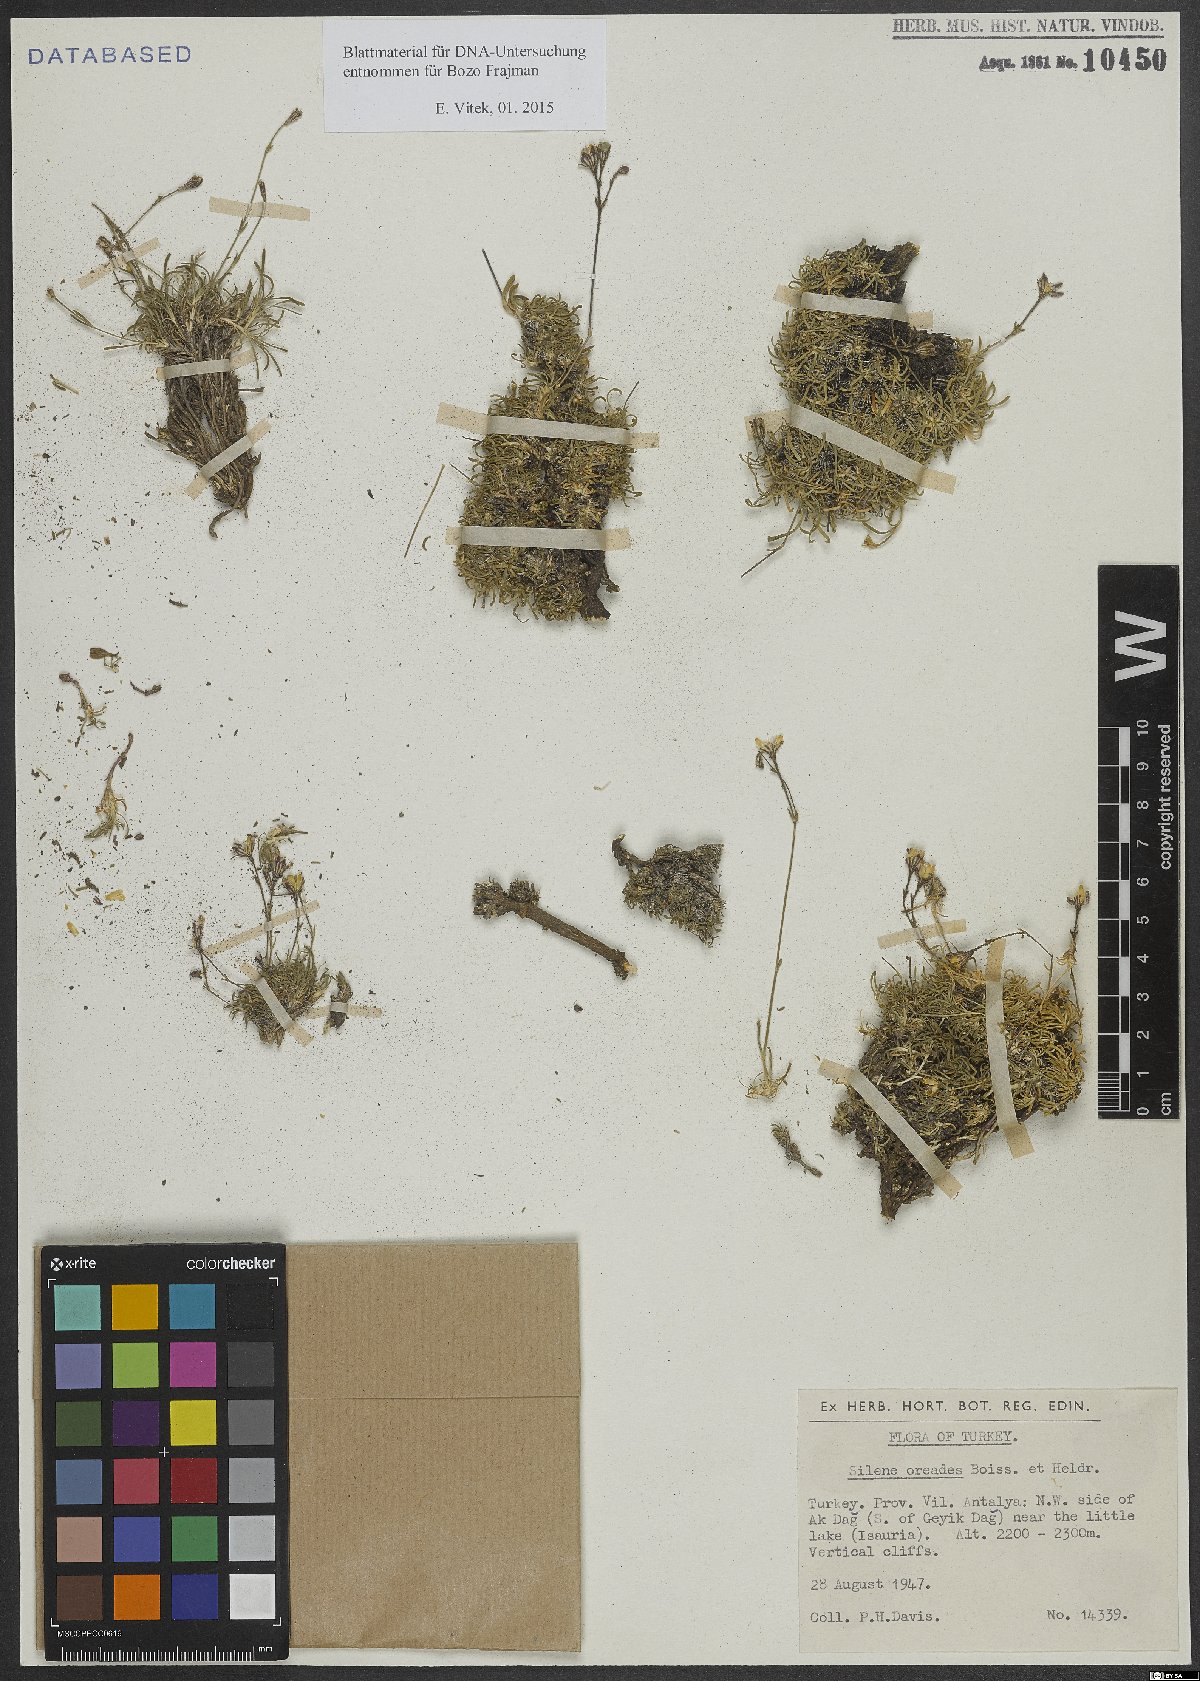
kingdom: Plantae
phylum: Tracheophyta
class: Magnoliopsida
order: Caryophyllales
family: Caryophyllaceae
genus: Silene
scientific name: Silene oreades
